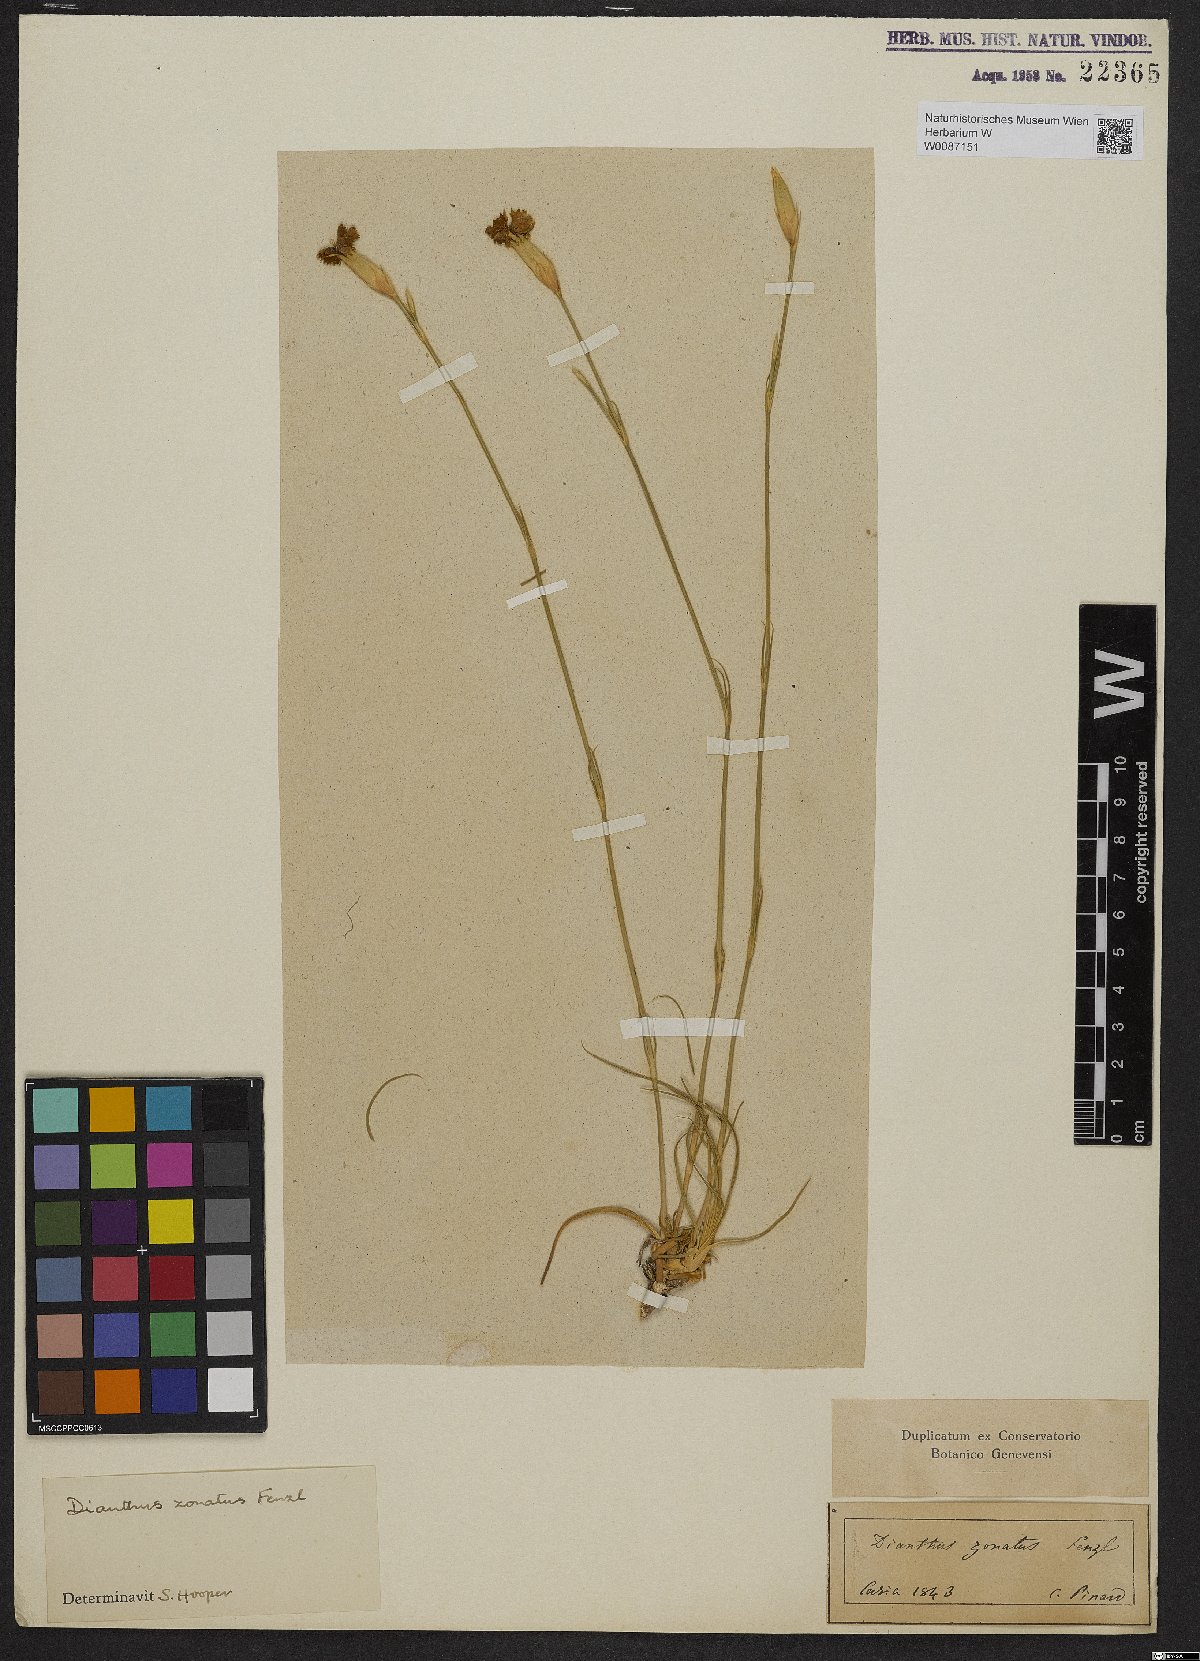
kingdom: Plantae
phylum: Tracheophyta
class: Magnoliopsida
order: Caryophyllales
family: Caryophyllaceae
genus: Dianthus
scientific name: Dianthus zonatus
